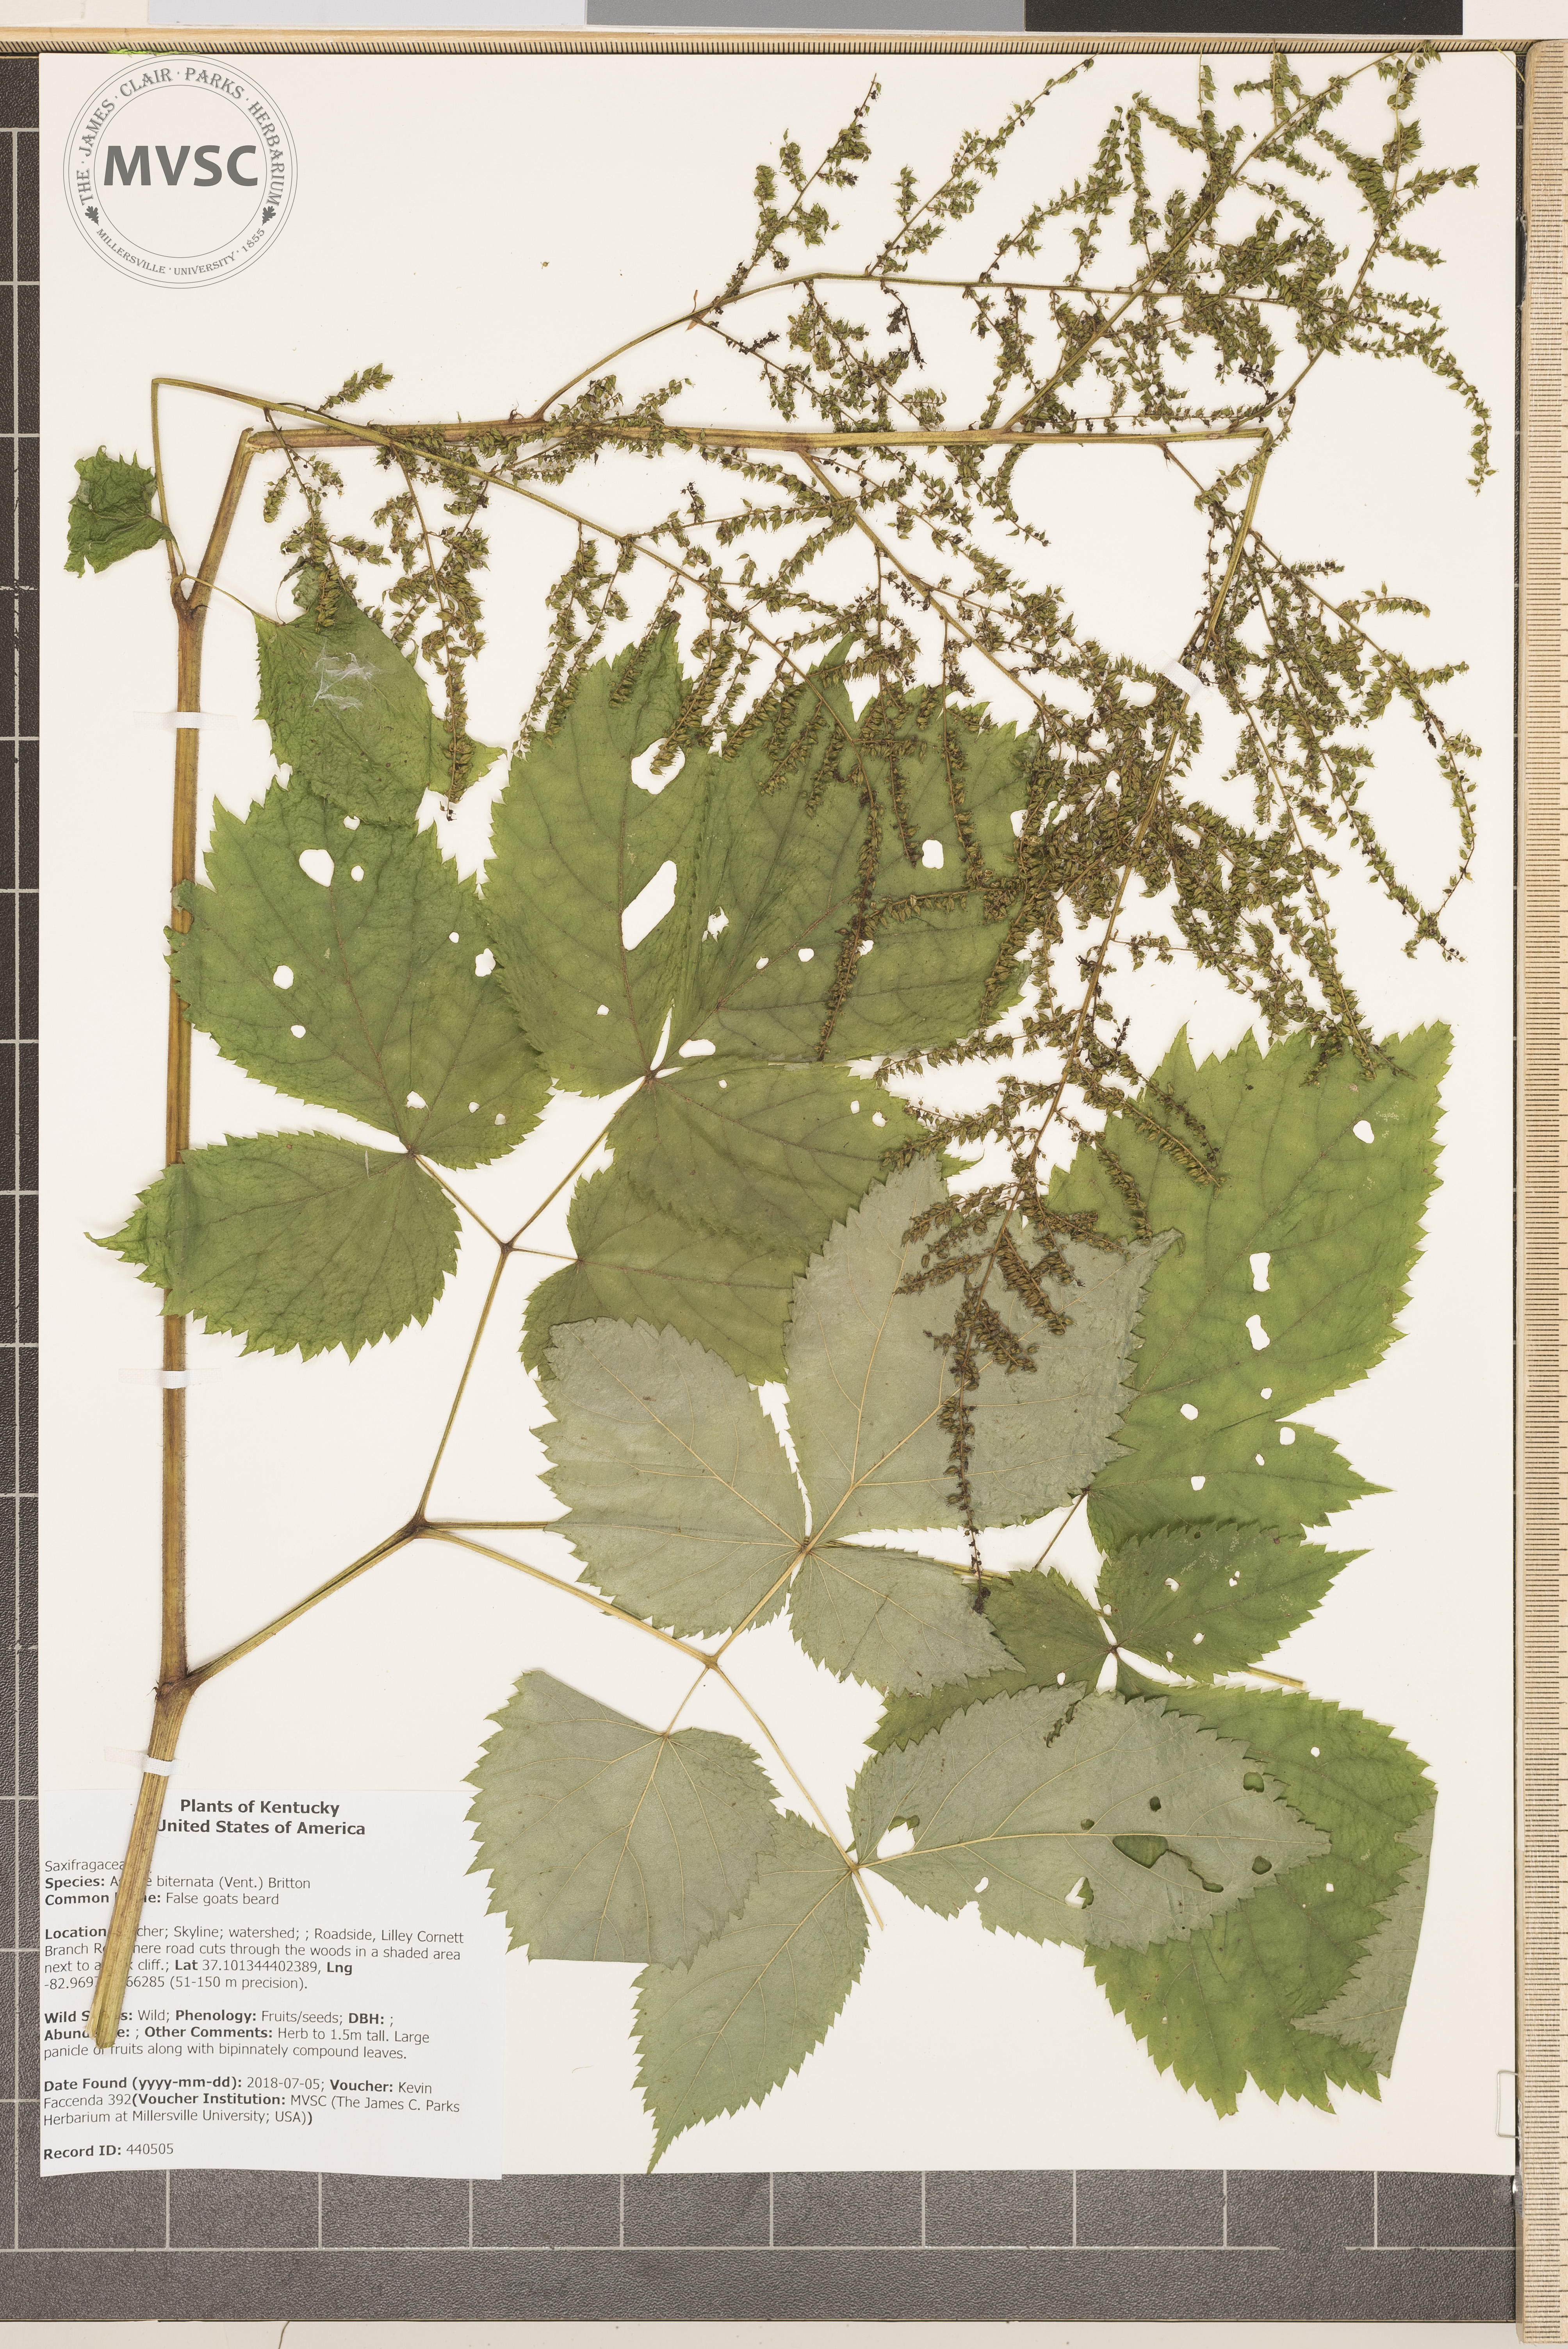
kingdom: Plantae
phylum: Tracheophyta
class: Magnoliopsida
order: Saxifragales
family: Saxifragaceae
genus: Astilbe
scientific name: Astilbe biternata
